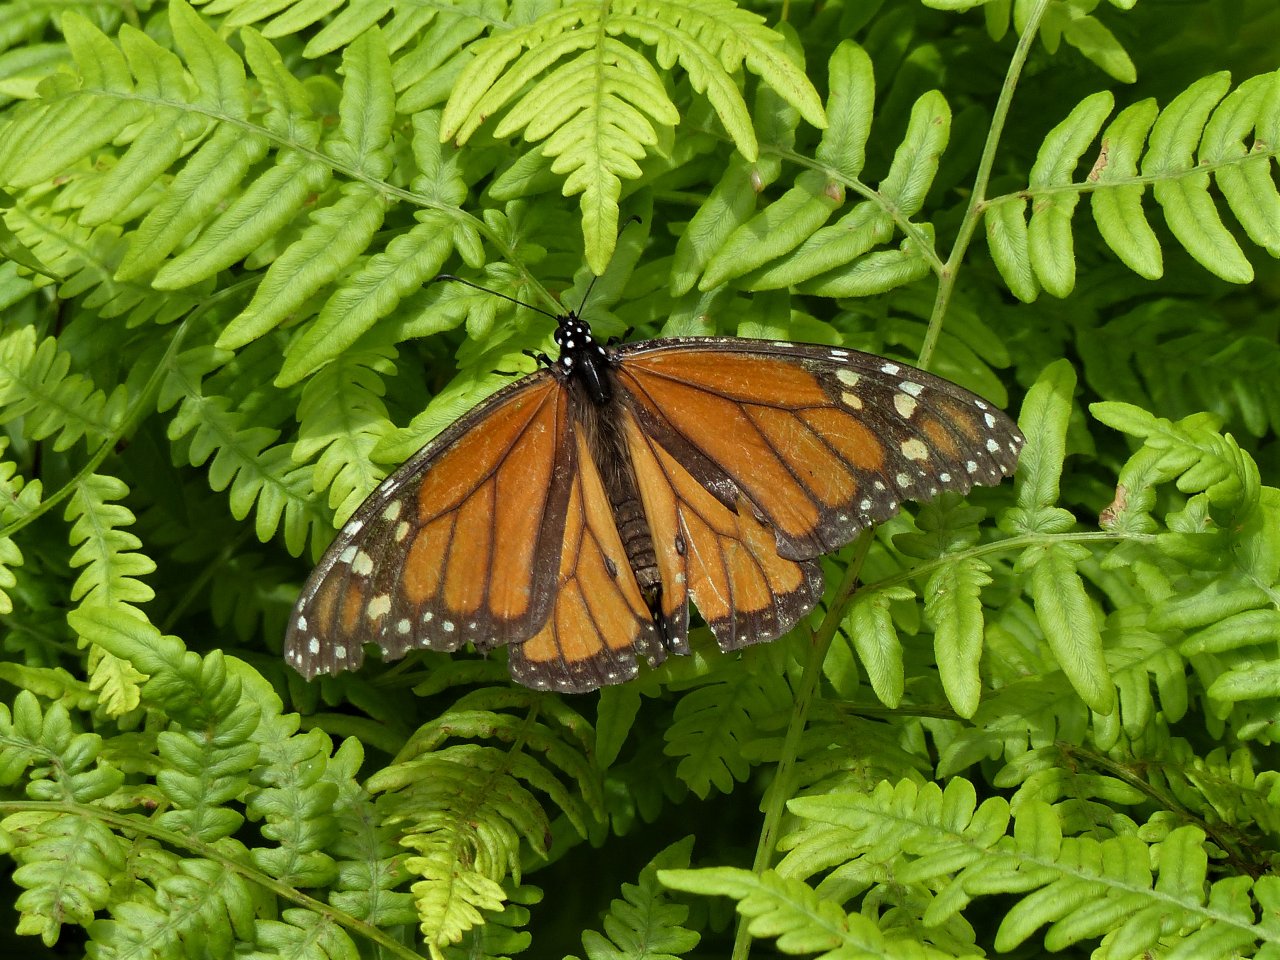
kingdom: Animalia
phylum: Arthropoda
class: Insecta
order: Lepidoptera
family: Nymphalidae
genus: Danaus
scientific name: Danaus plexippus
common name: Monarch
